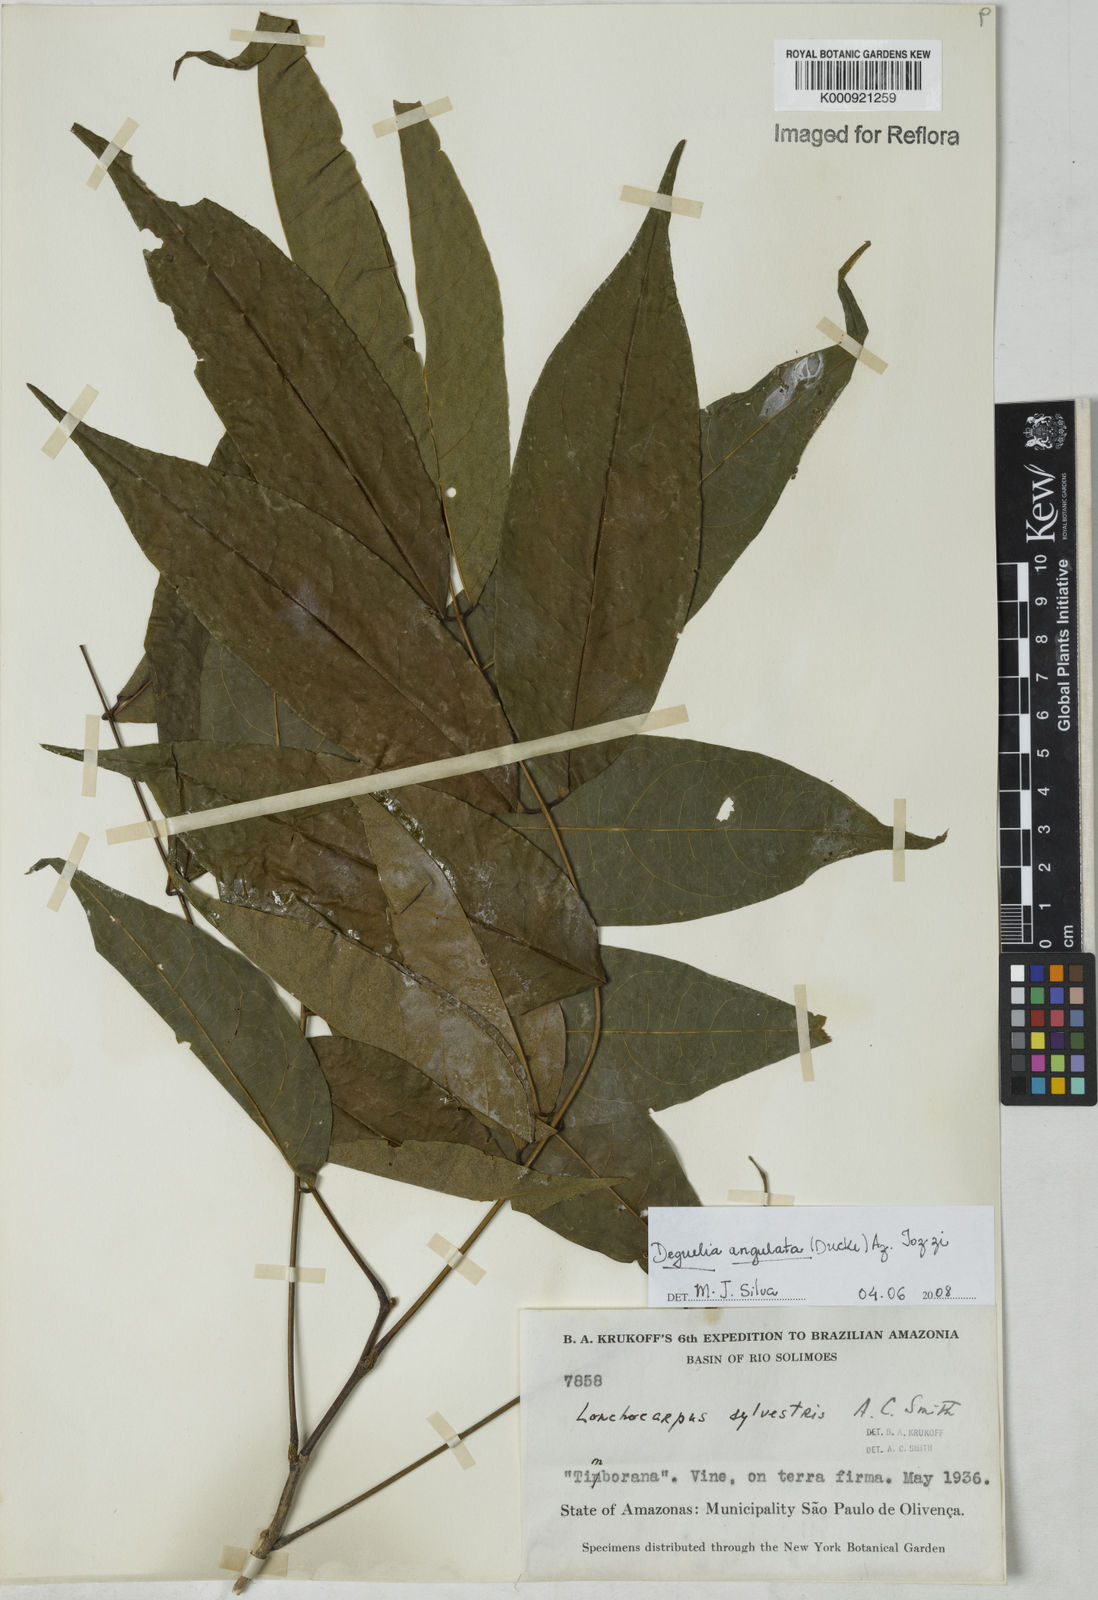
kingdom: Plantae
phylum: Tracheophyta
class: Magnoliopsida
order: Fabales
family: Fabaceae
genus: Deguelia
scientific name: Deguelia angulata
